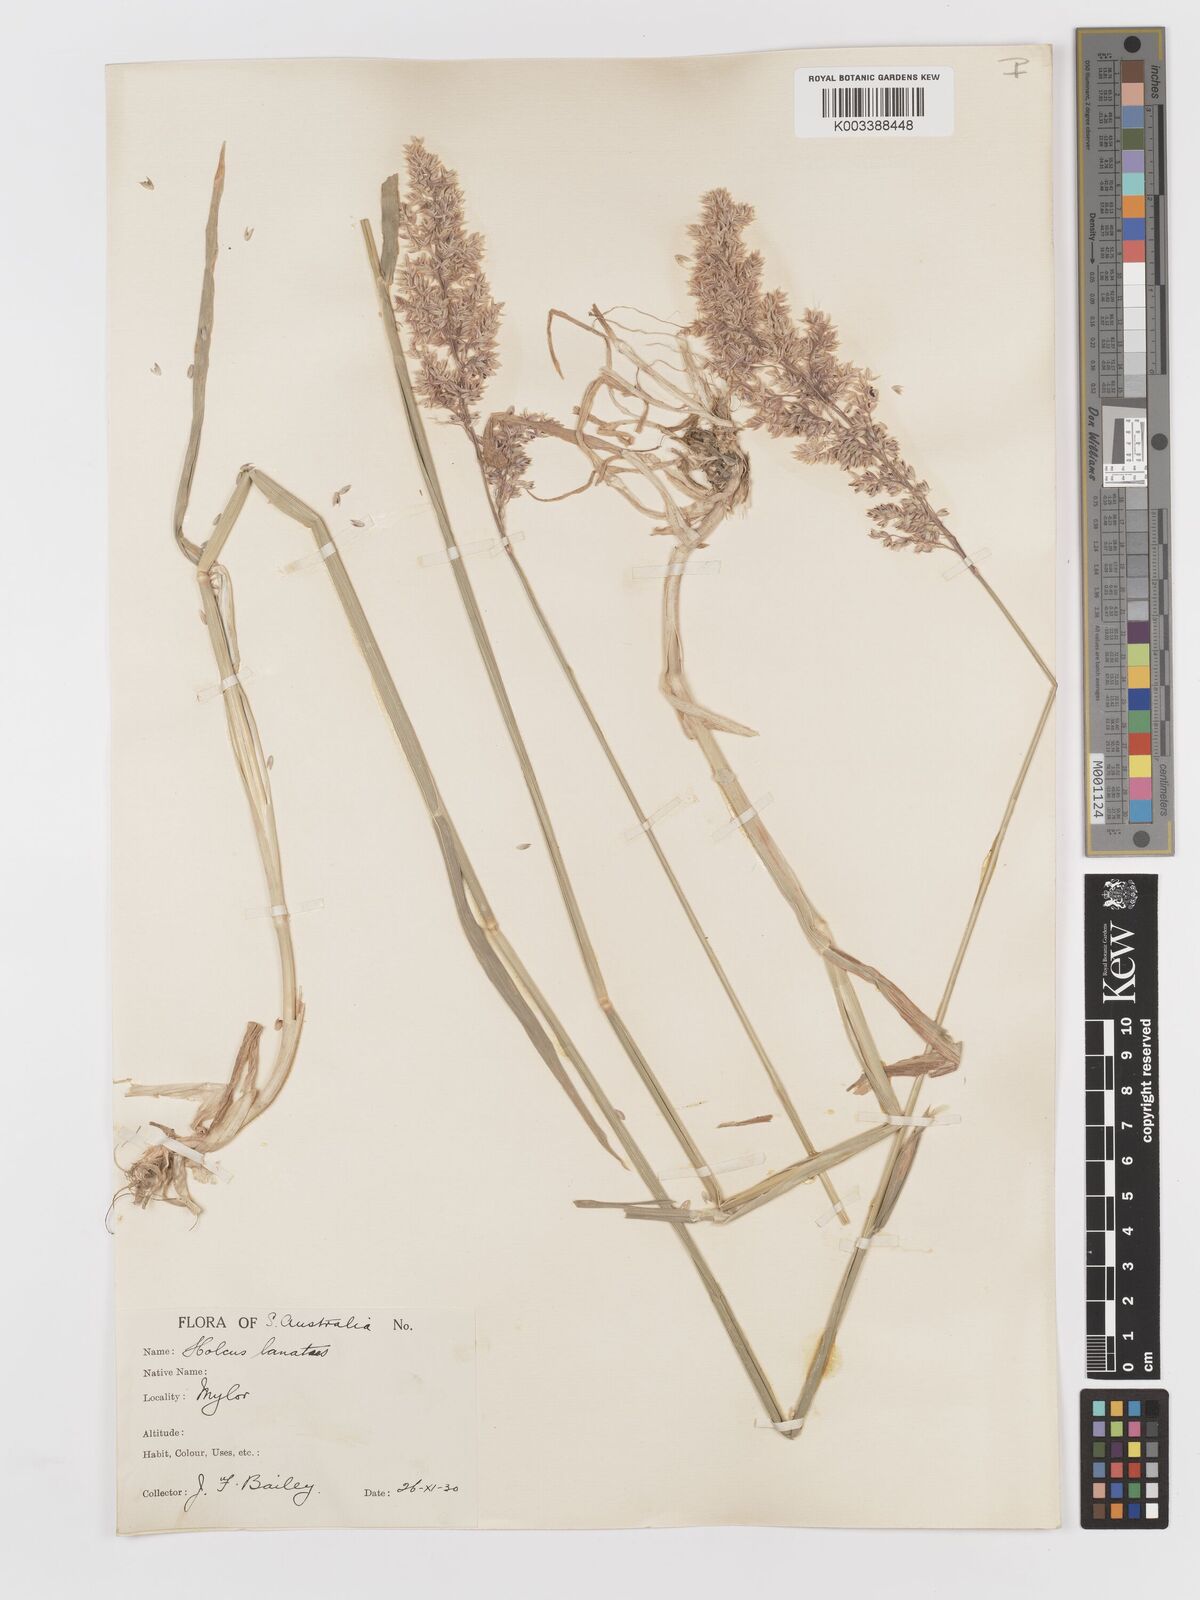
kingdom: Plantae
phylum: Tracheophyta
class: Liliopsida
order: Poales
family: Poaceae
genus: Holcus
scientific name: Holcus lanatus
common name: Yorkshire-fog
